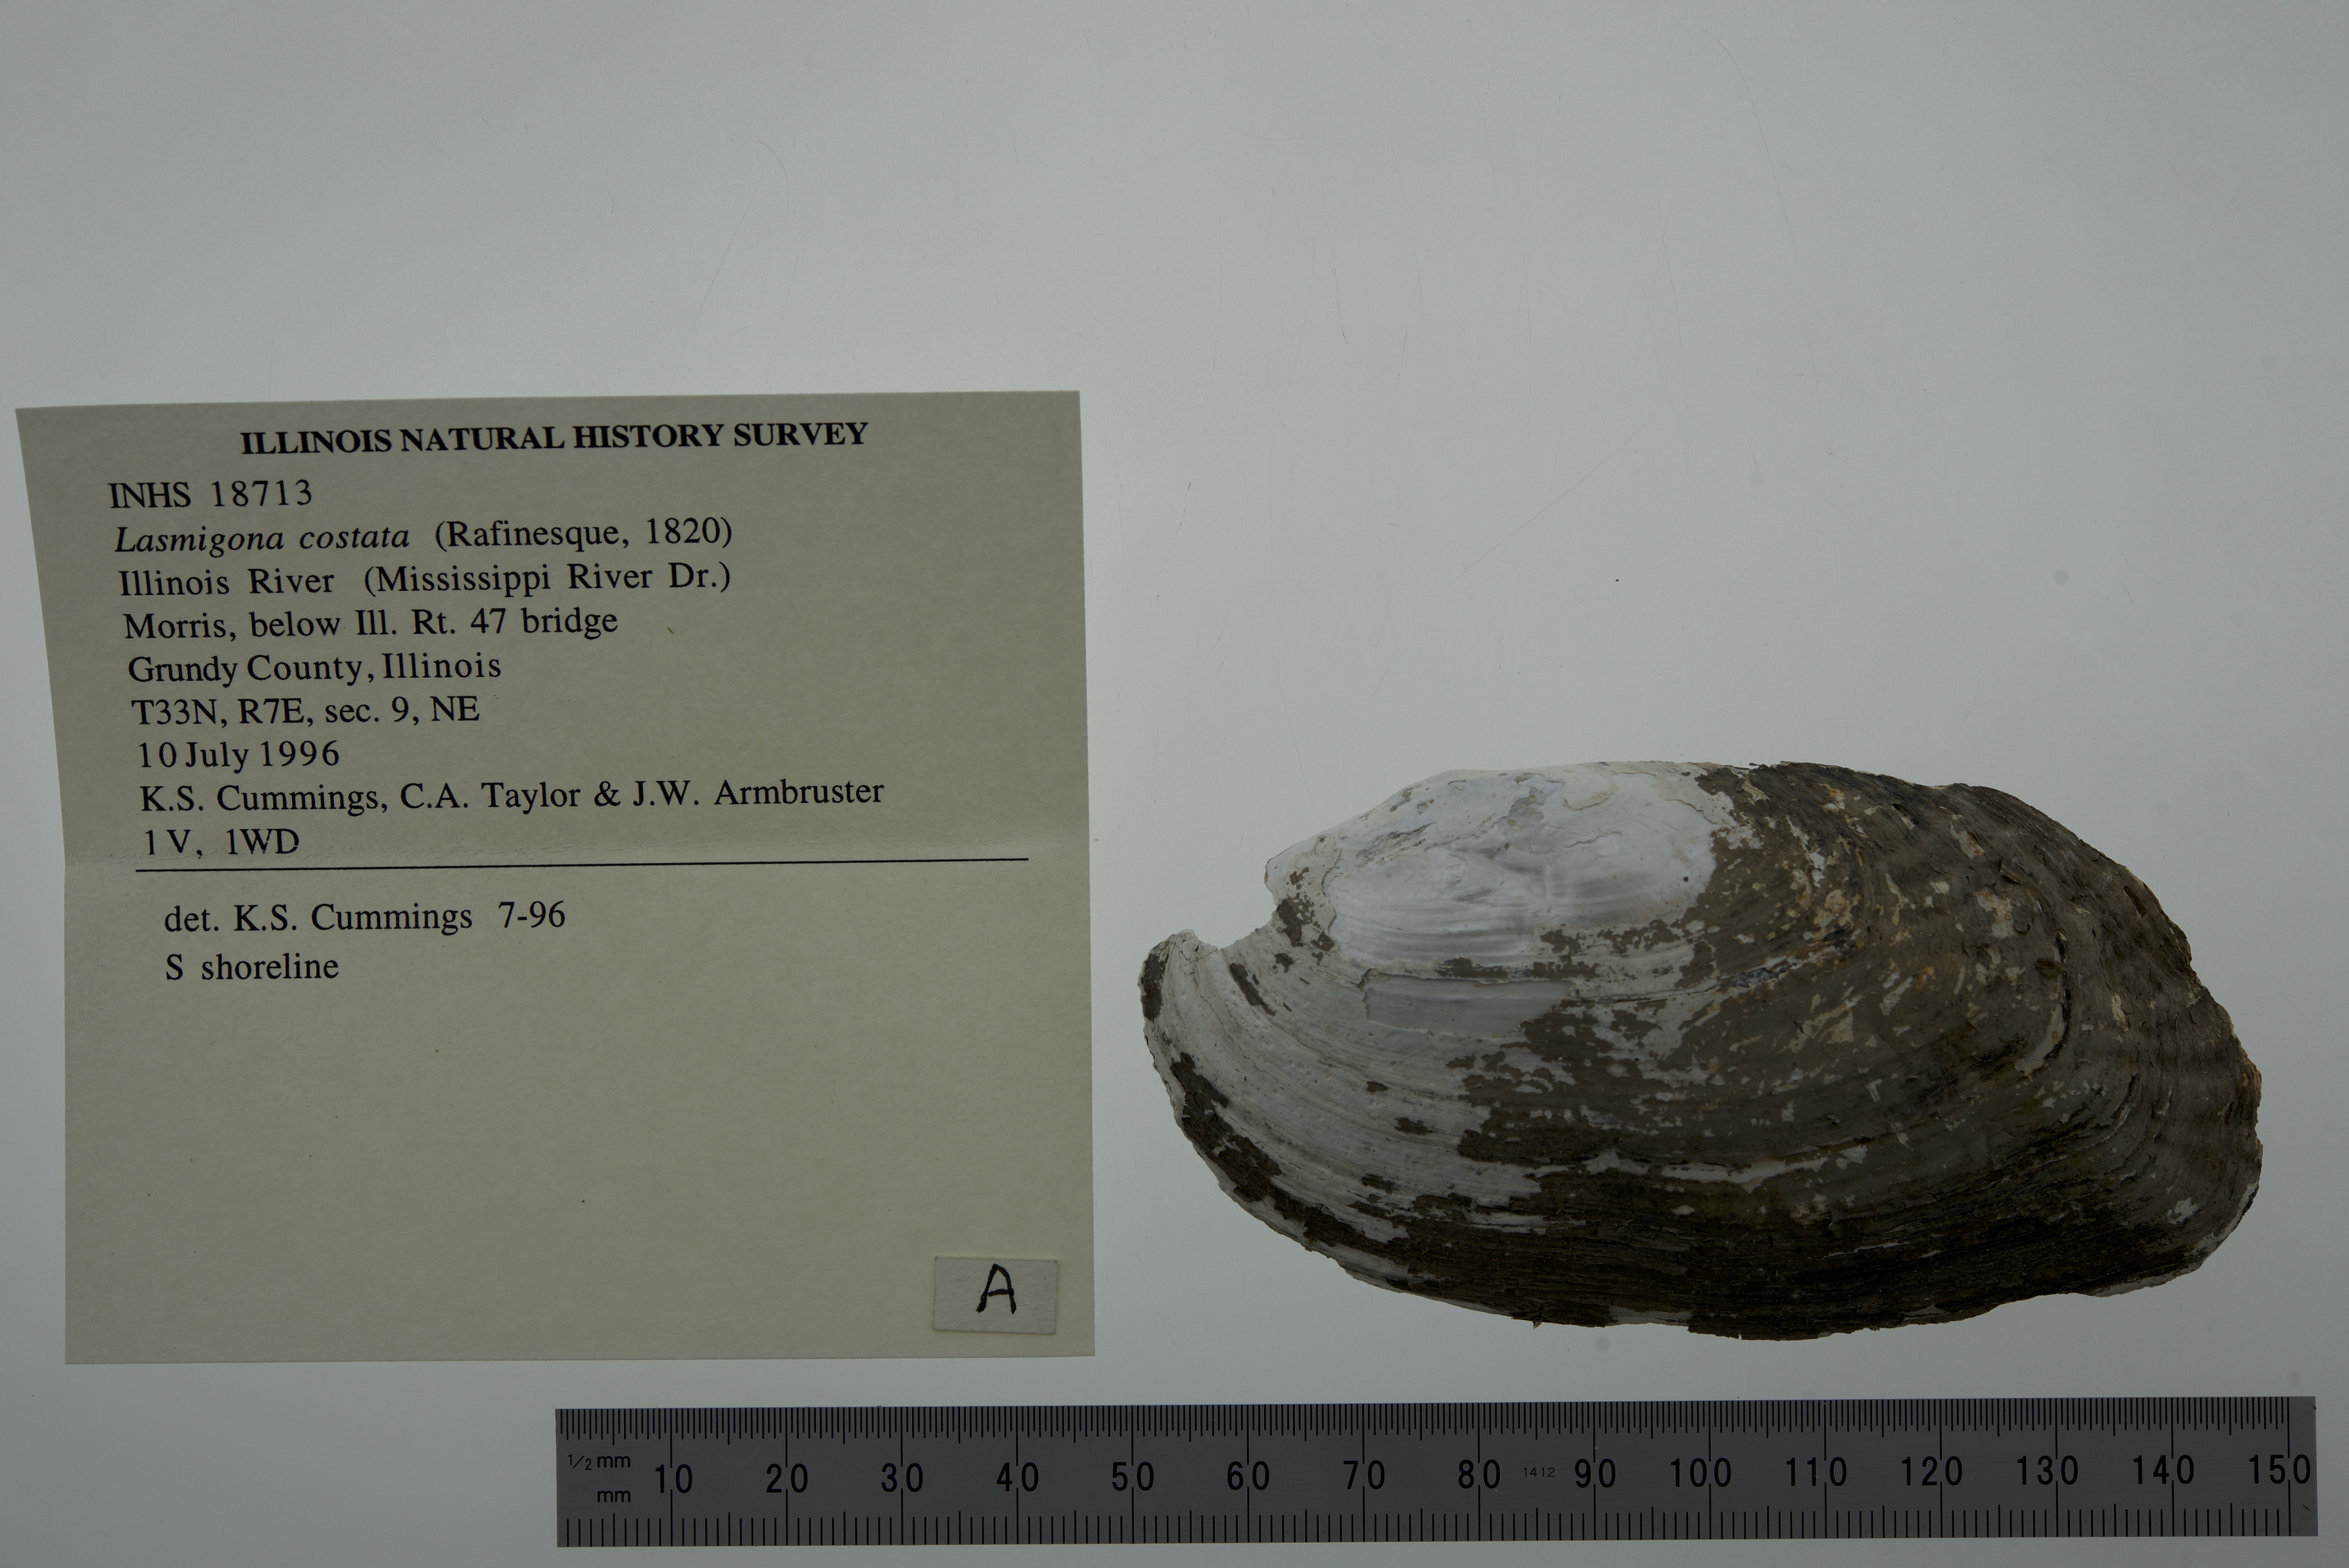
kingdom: Animalia
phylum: Mollusca
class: Bivalvia
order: Unionida
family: Unionidae
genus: Lasmigona
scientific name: Lasmigona costata
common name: Flutedshell
